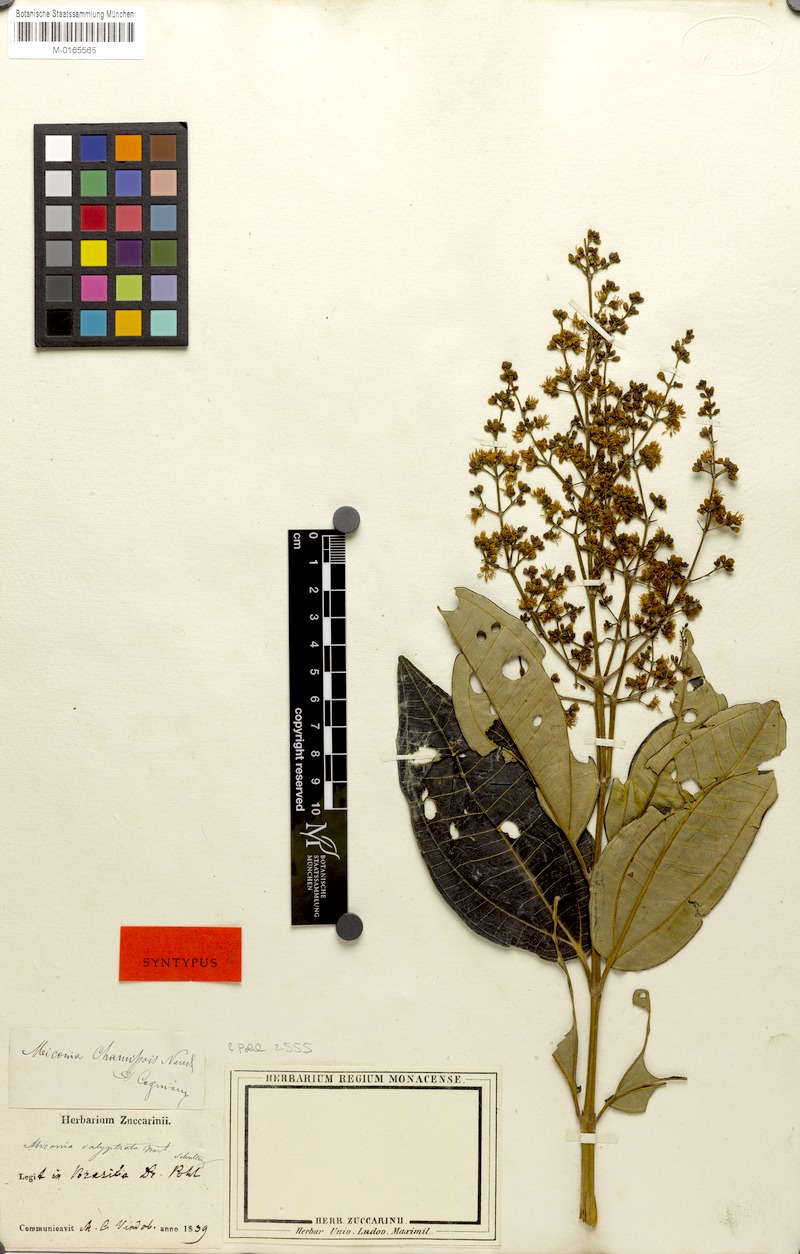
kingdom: Plantae
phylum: Tracheophyta
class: Magnoliopsida
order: Myrtales
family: Melastomataceae
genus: Miconia
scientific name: Miconia chamissois
